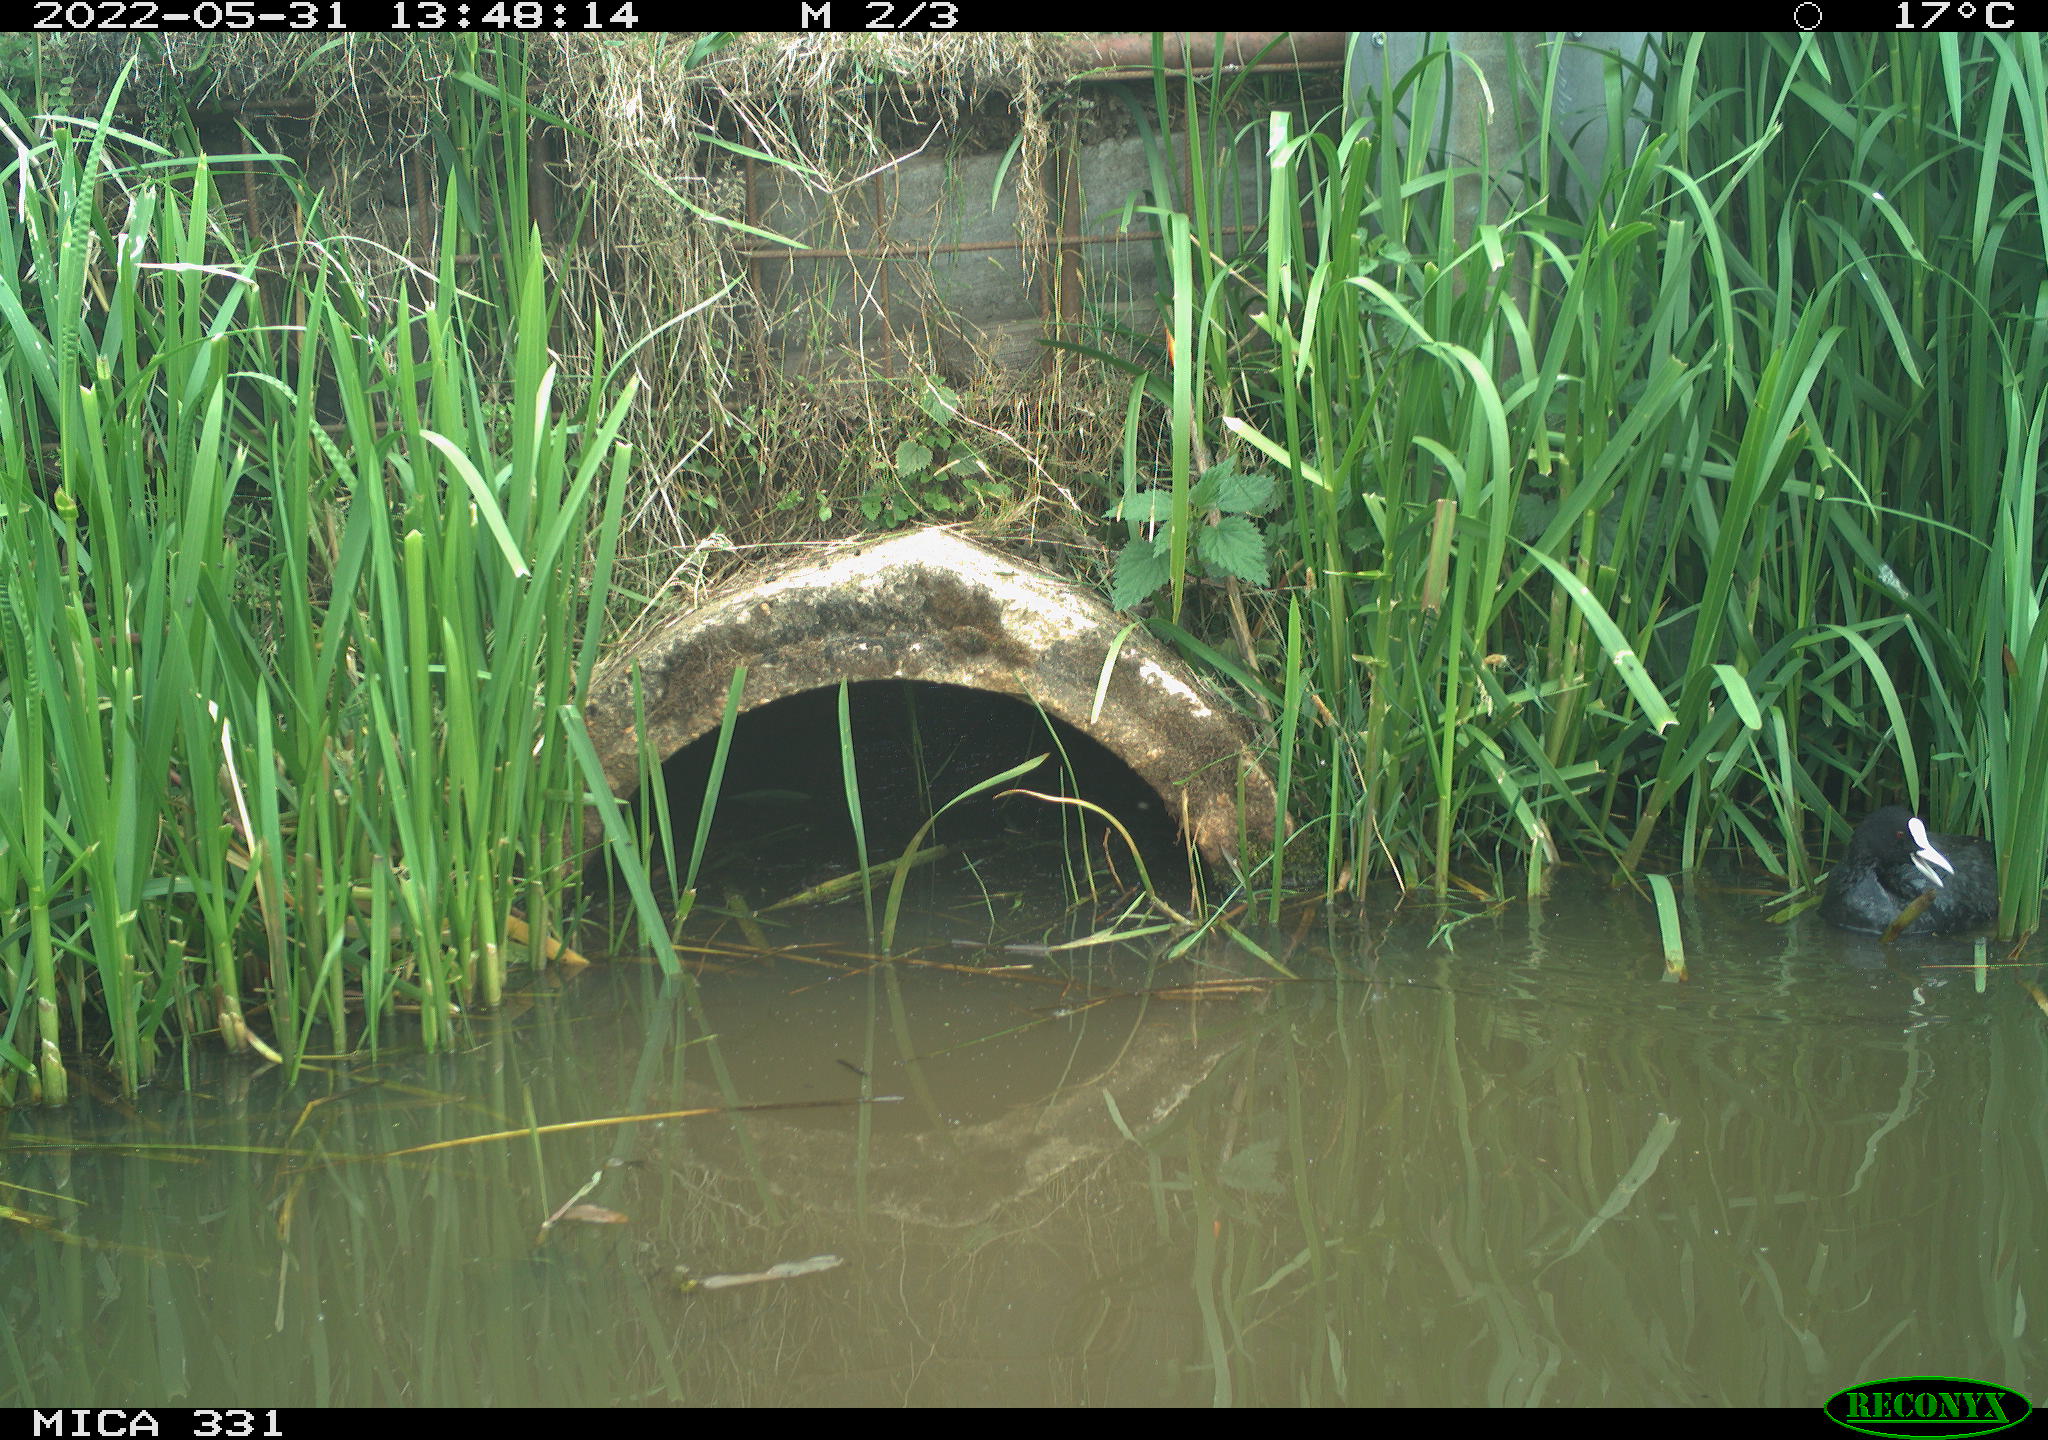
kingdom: Animalia
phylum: Chordata
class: Aves
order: Gruiformes
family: Rallidae
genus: Fulica
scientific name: Fulica atra
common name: Eurasian coot
